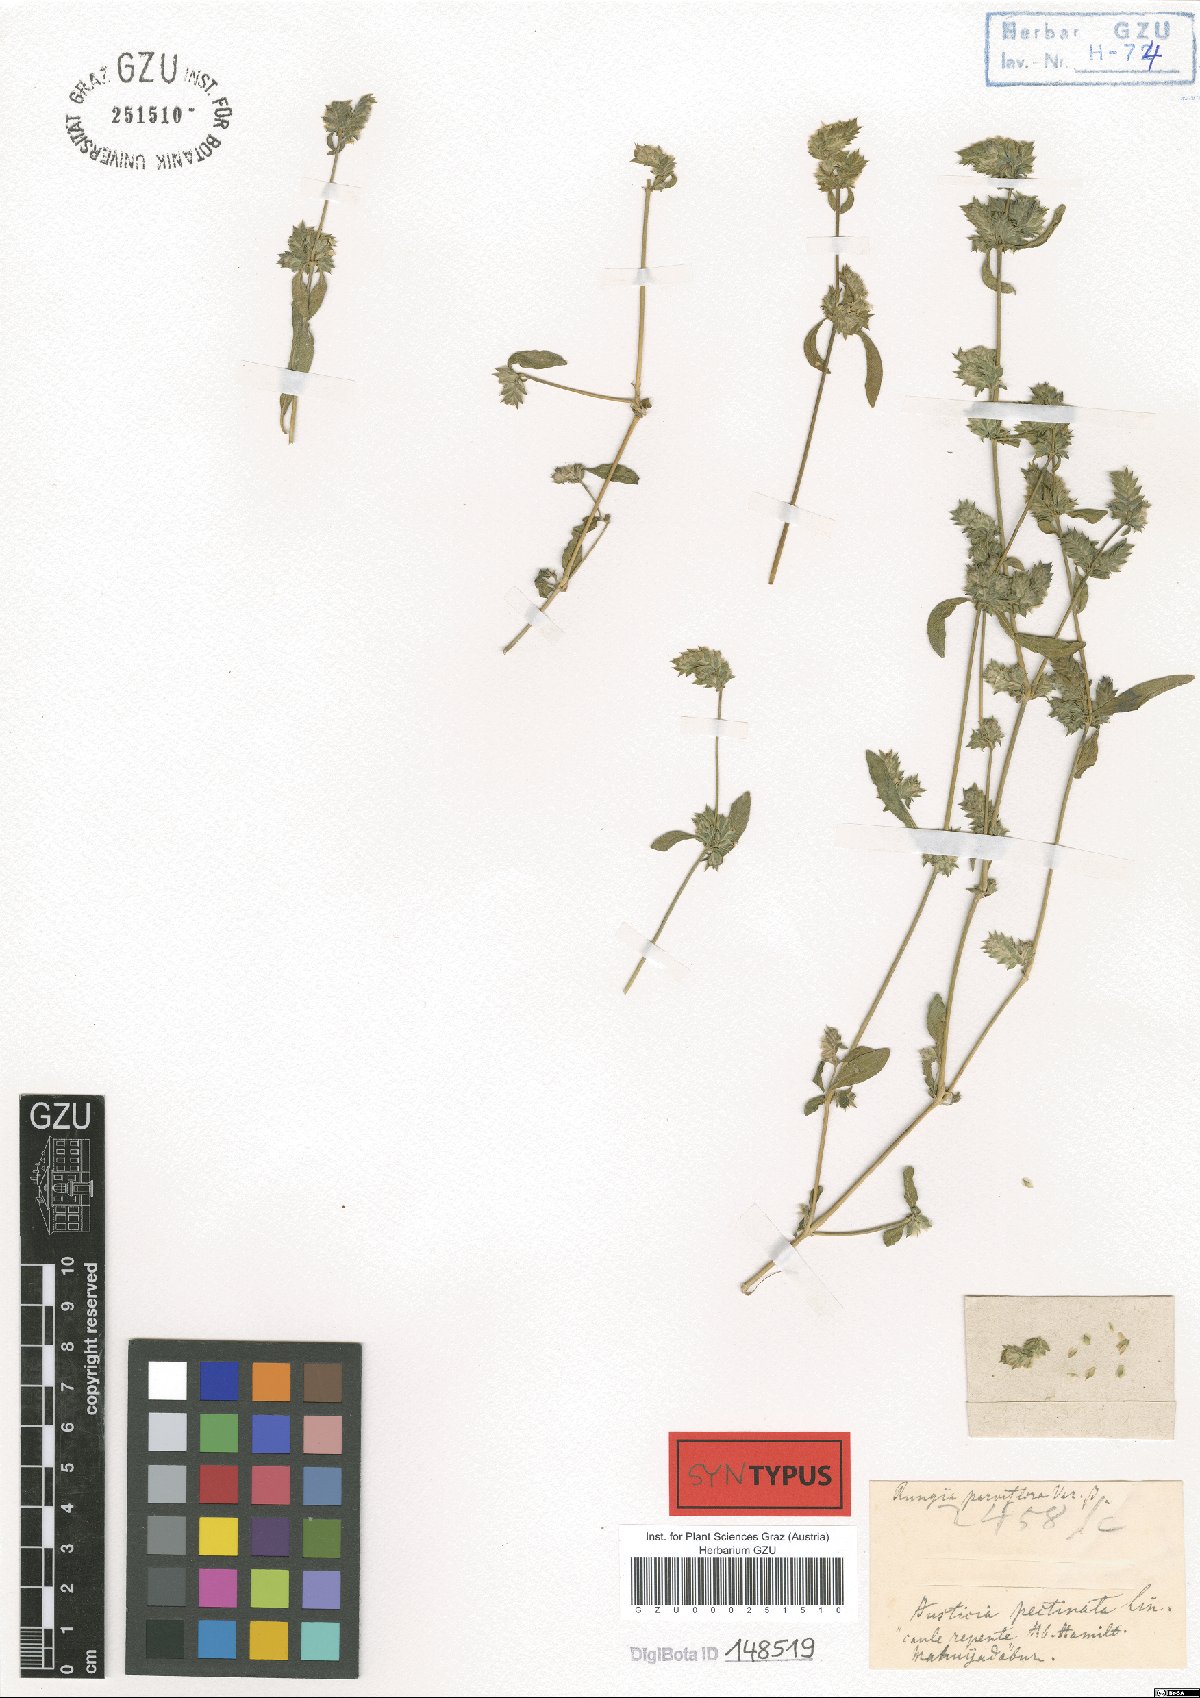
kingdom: Plantae
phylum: Tracheophyta
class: Magnoliopsida
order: Lamiales
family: Acanthaceae
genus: Rungia
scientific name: Rungia parviflora
